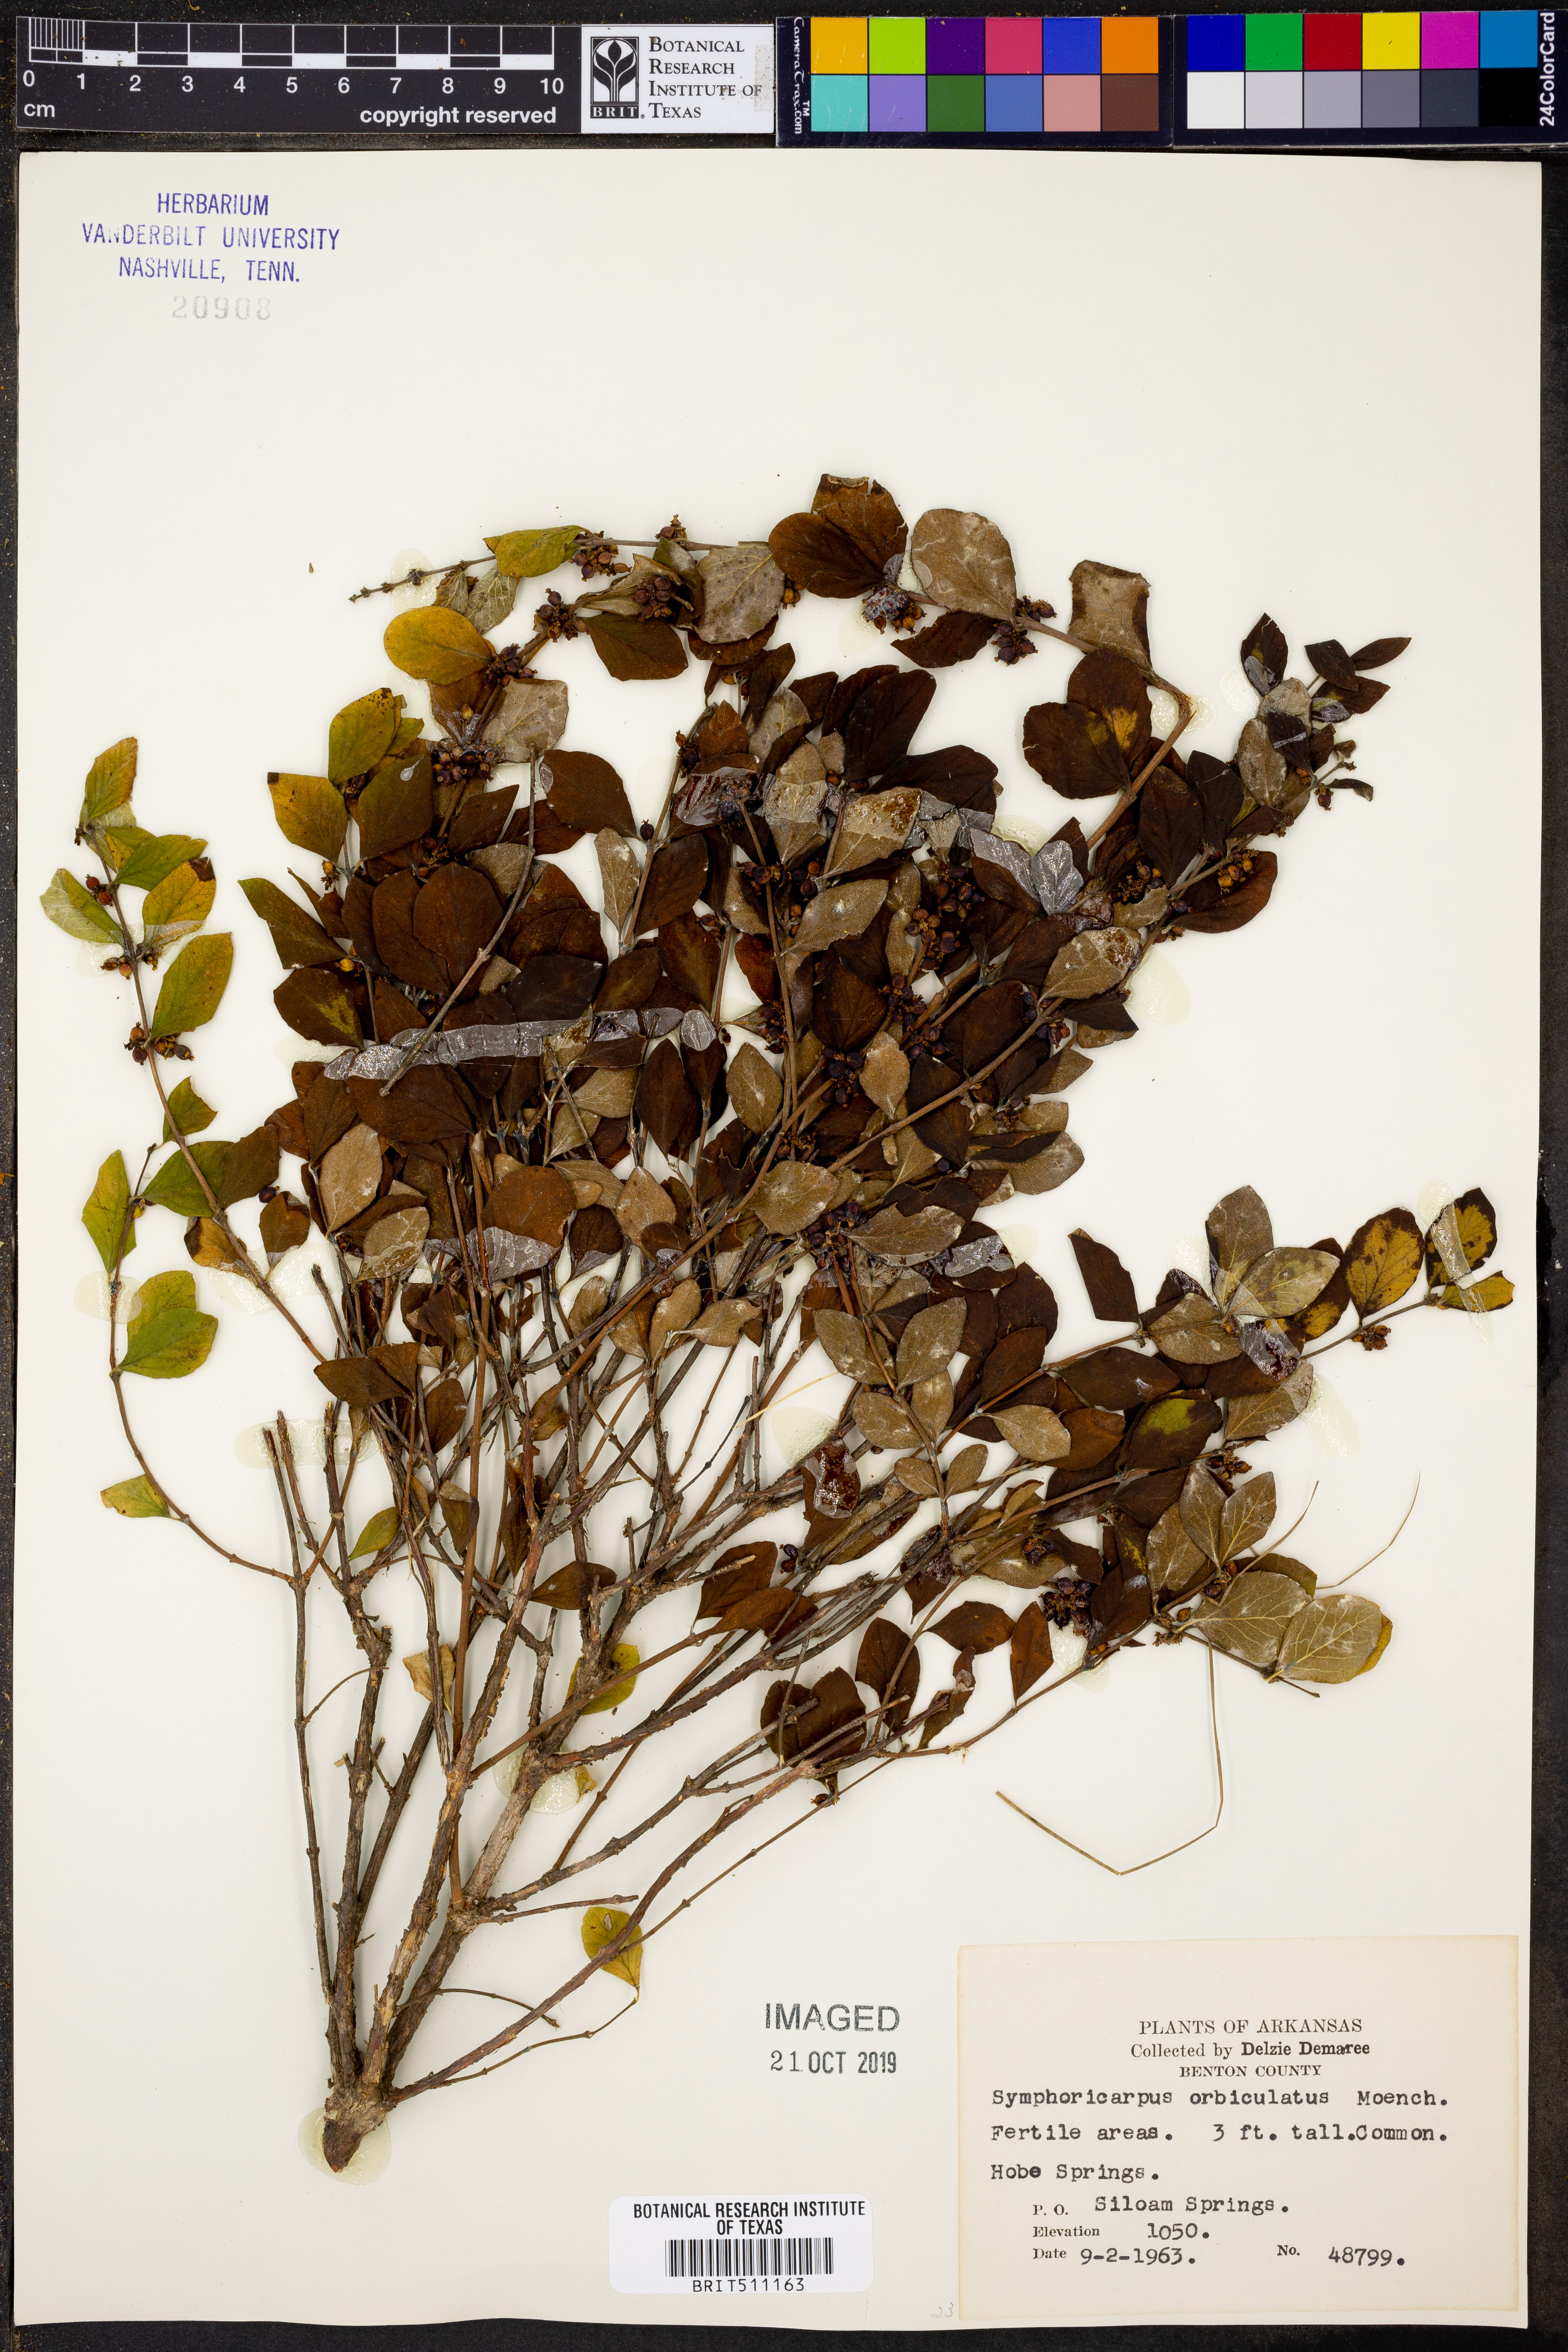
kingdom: Plantae
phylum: Tracheophyta
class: Magnoliopsida
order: Dipsacales
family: Caprifoliaceae
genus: Symphoricarpos
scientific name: Symphoricarpos orbiculatus
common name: Coralberry
